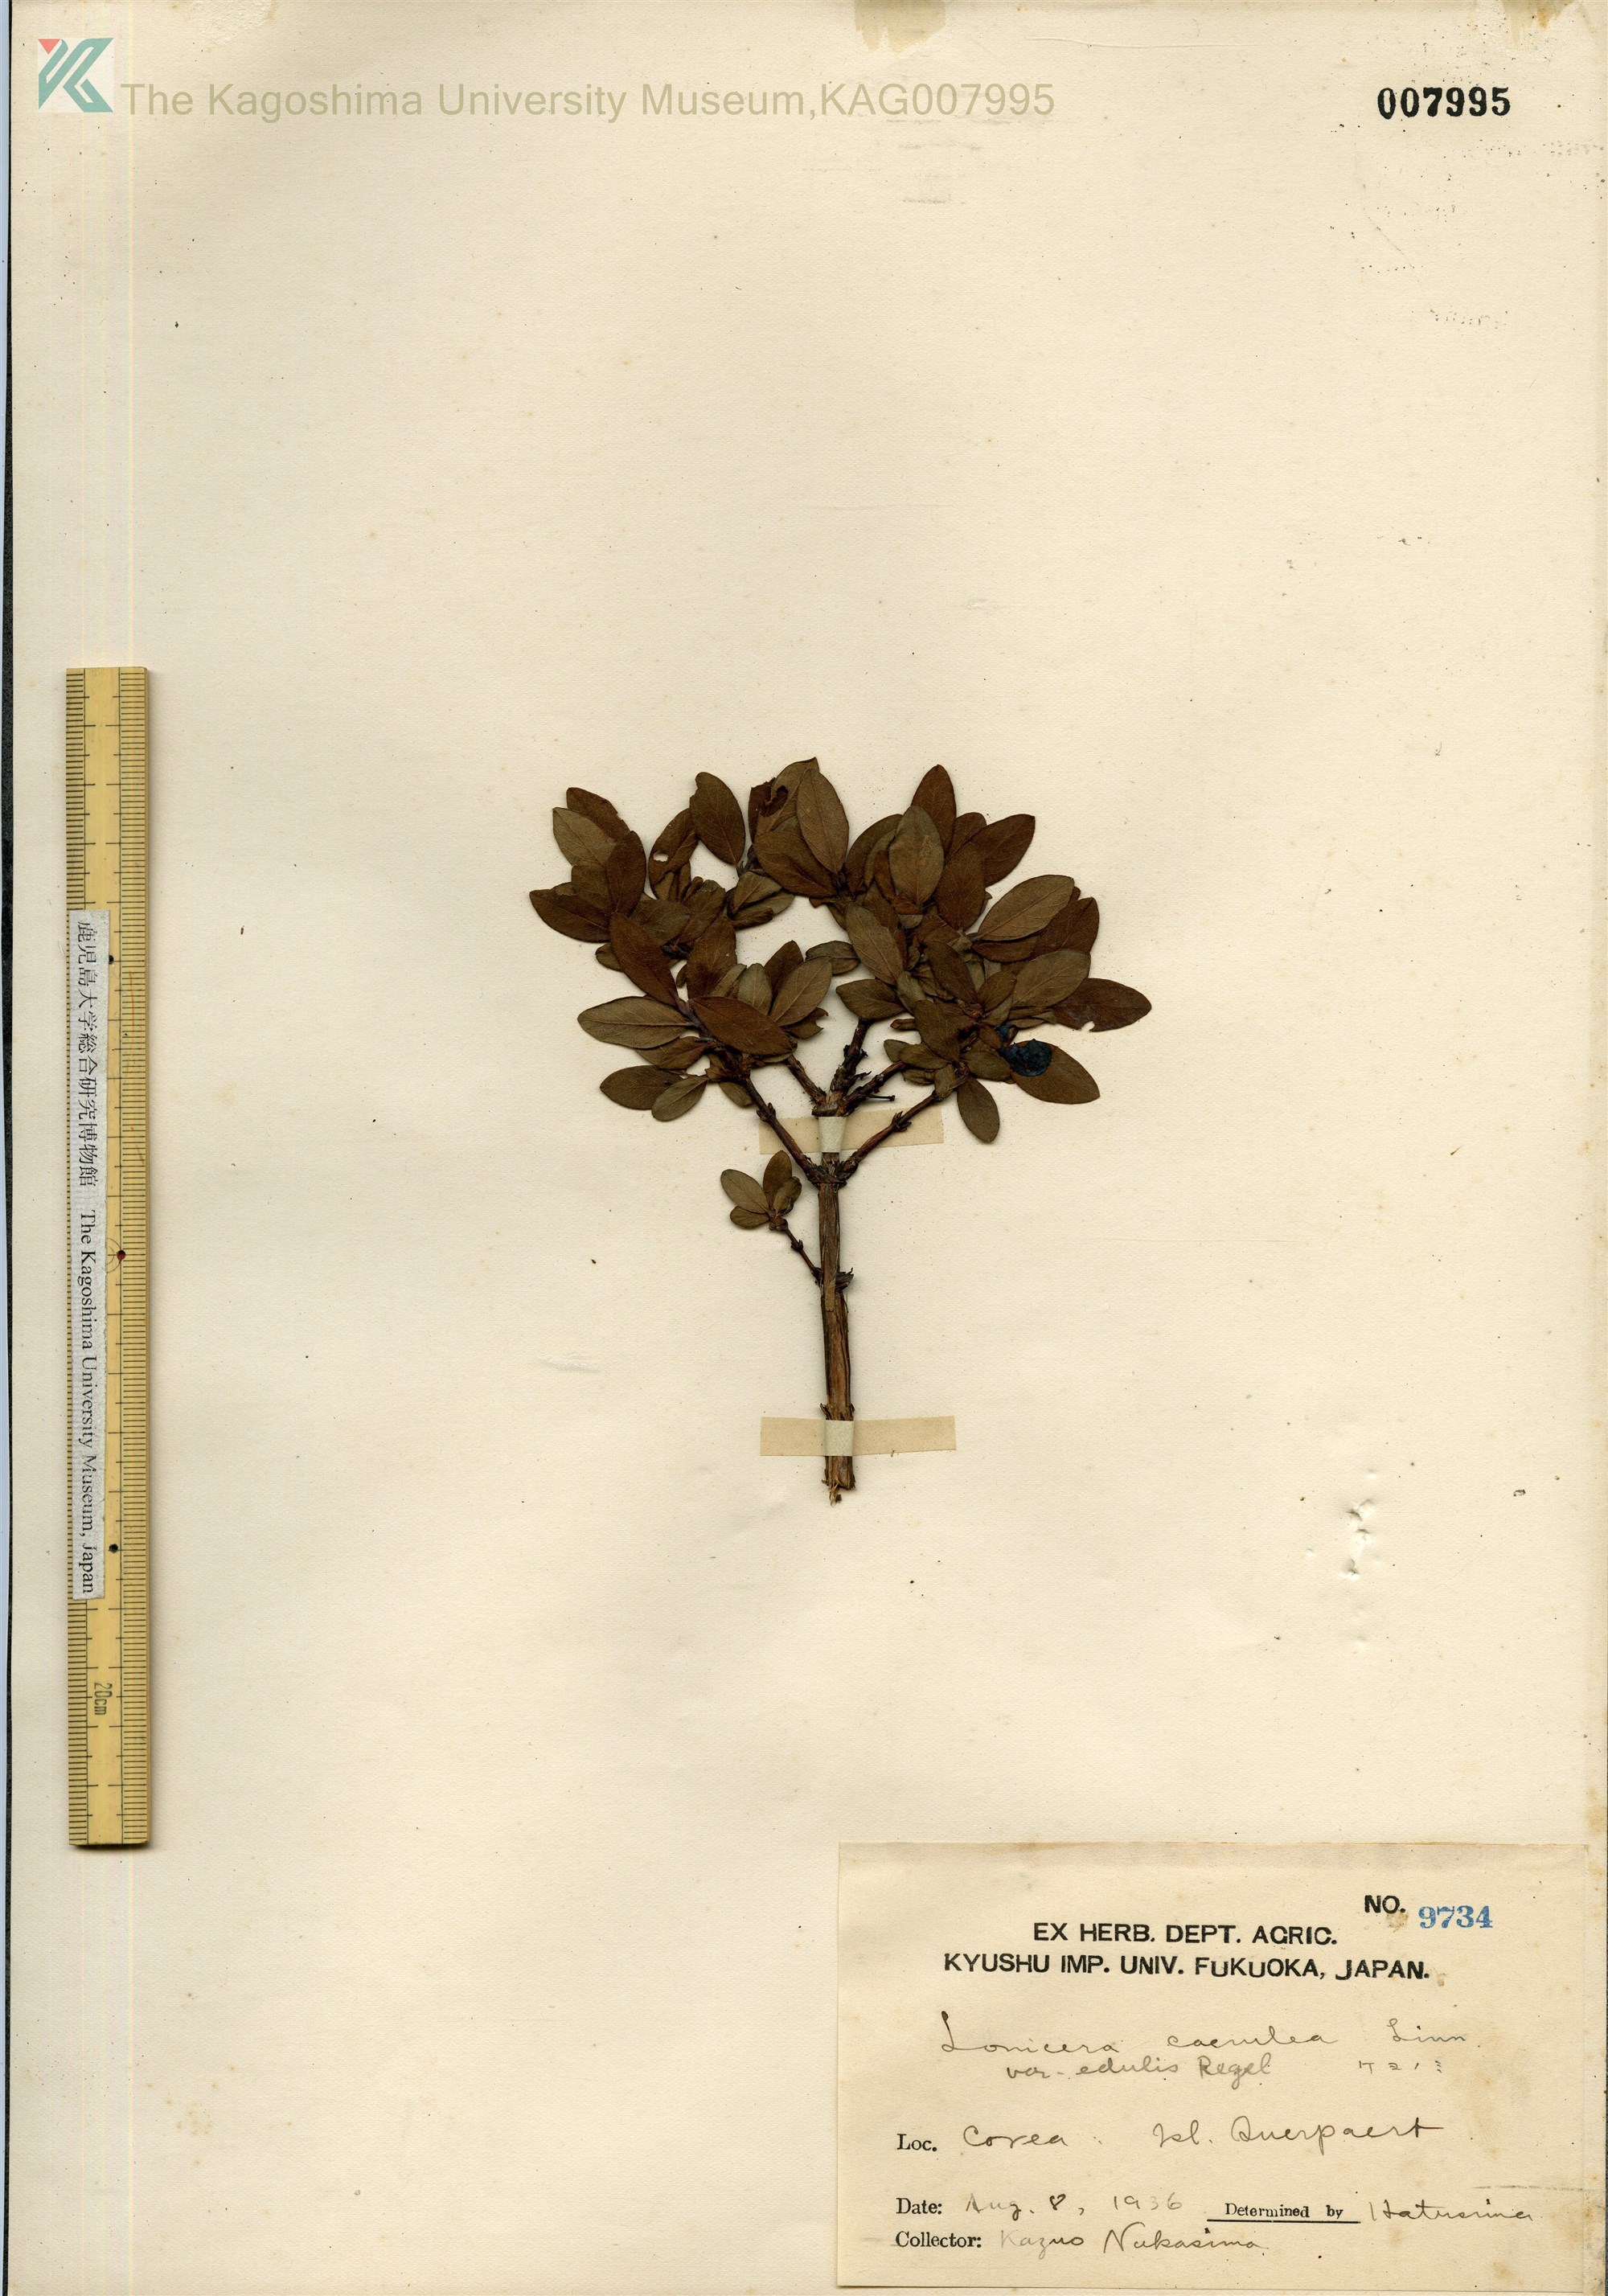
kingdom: Plantae
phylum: Tracheophyta
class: Magnoliopsida
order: Dipsacales
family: Caprifoliaceae
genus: Lonicera
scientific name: Lonicera caerulea
